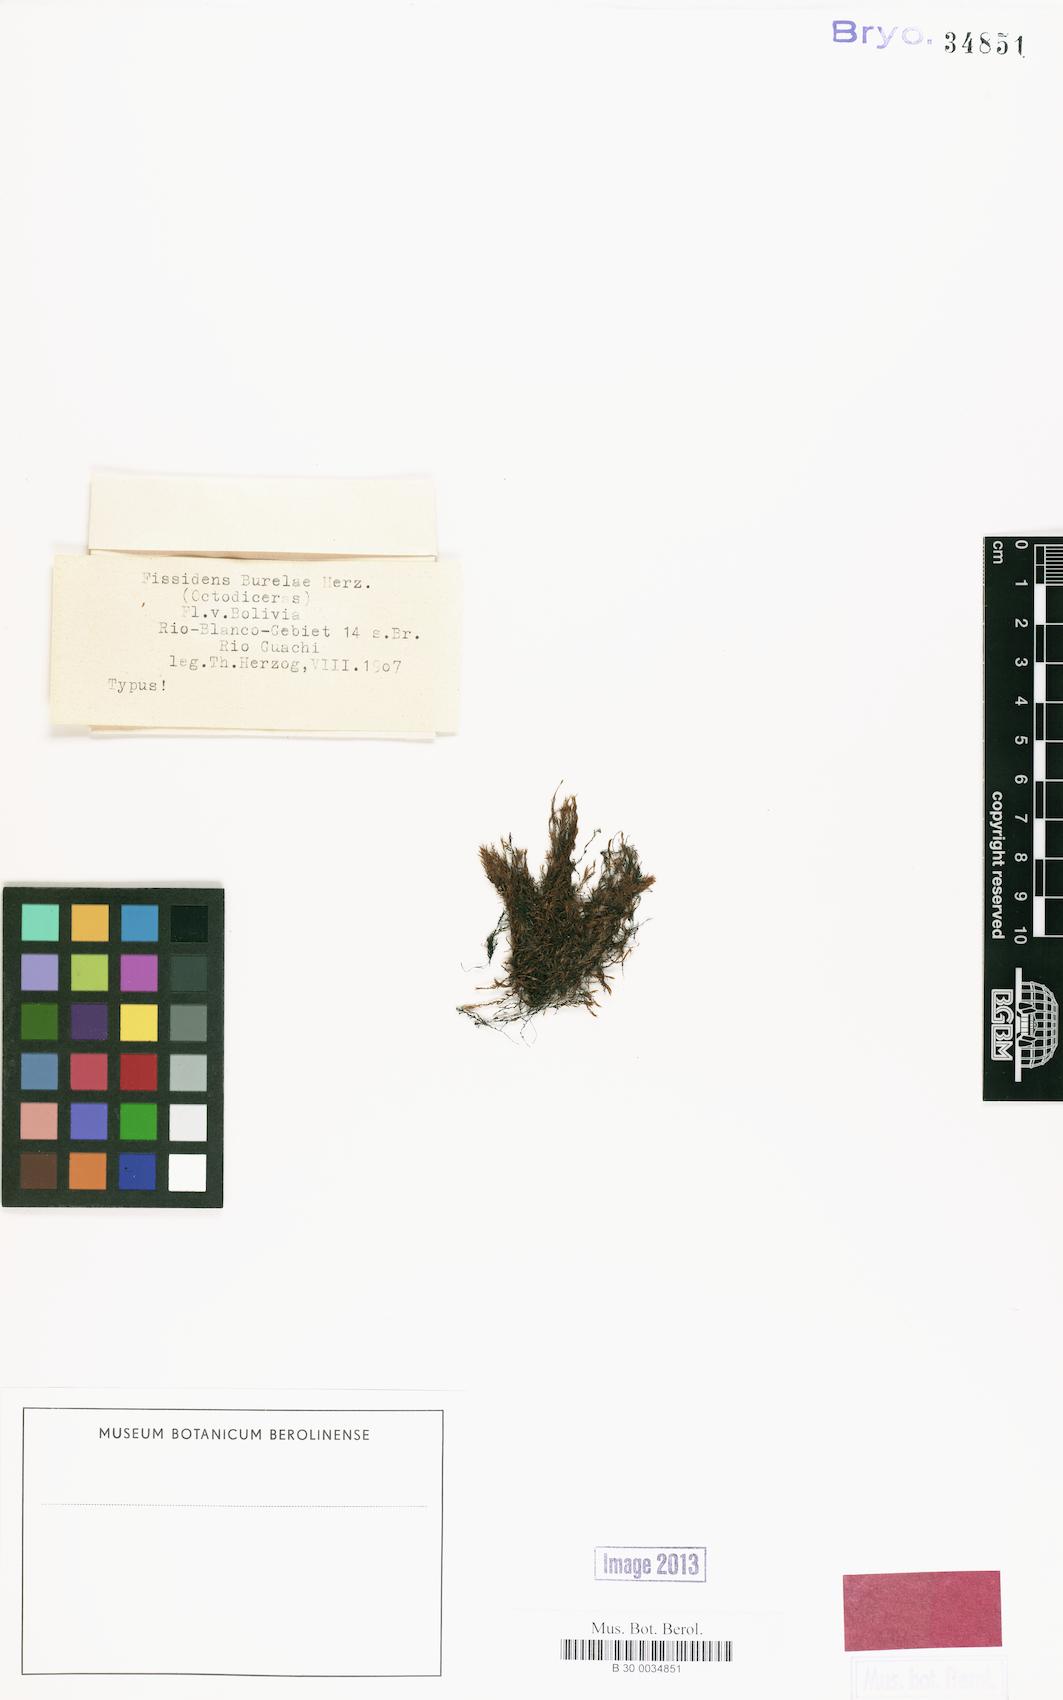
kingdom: Plantae
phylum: Bryophyta
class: Bryopsida
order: Dicranales
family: Fissidentaceae
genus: Fissidens
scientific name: Fissidens semicompletus
